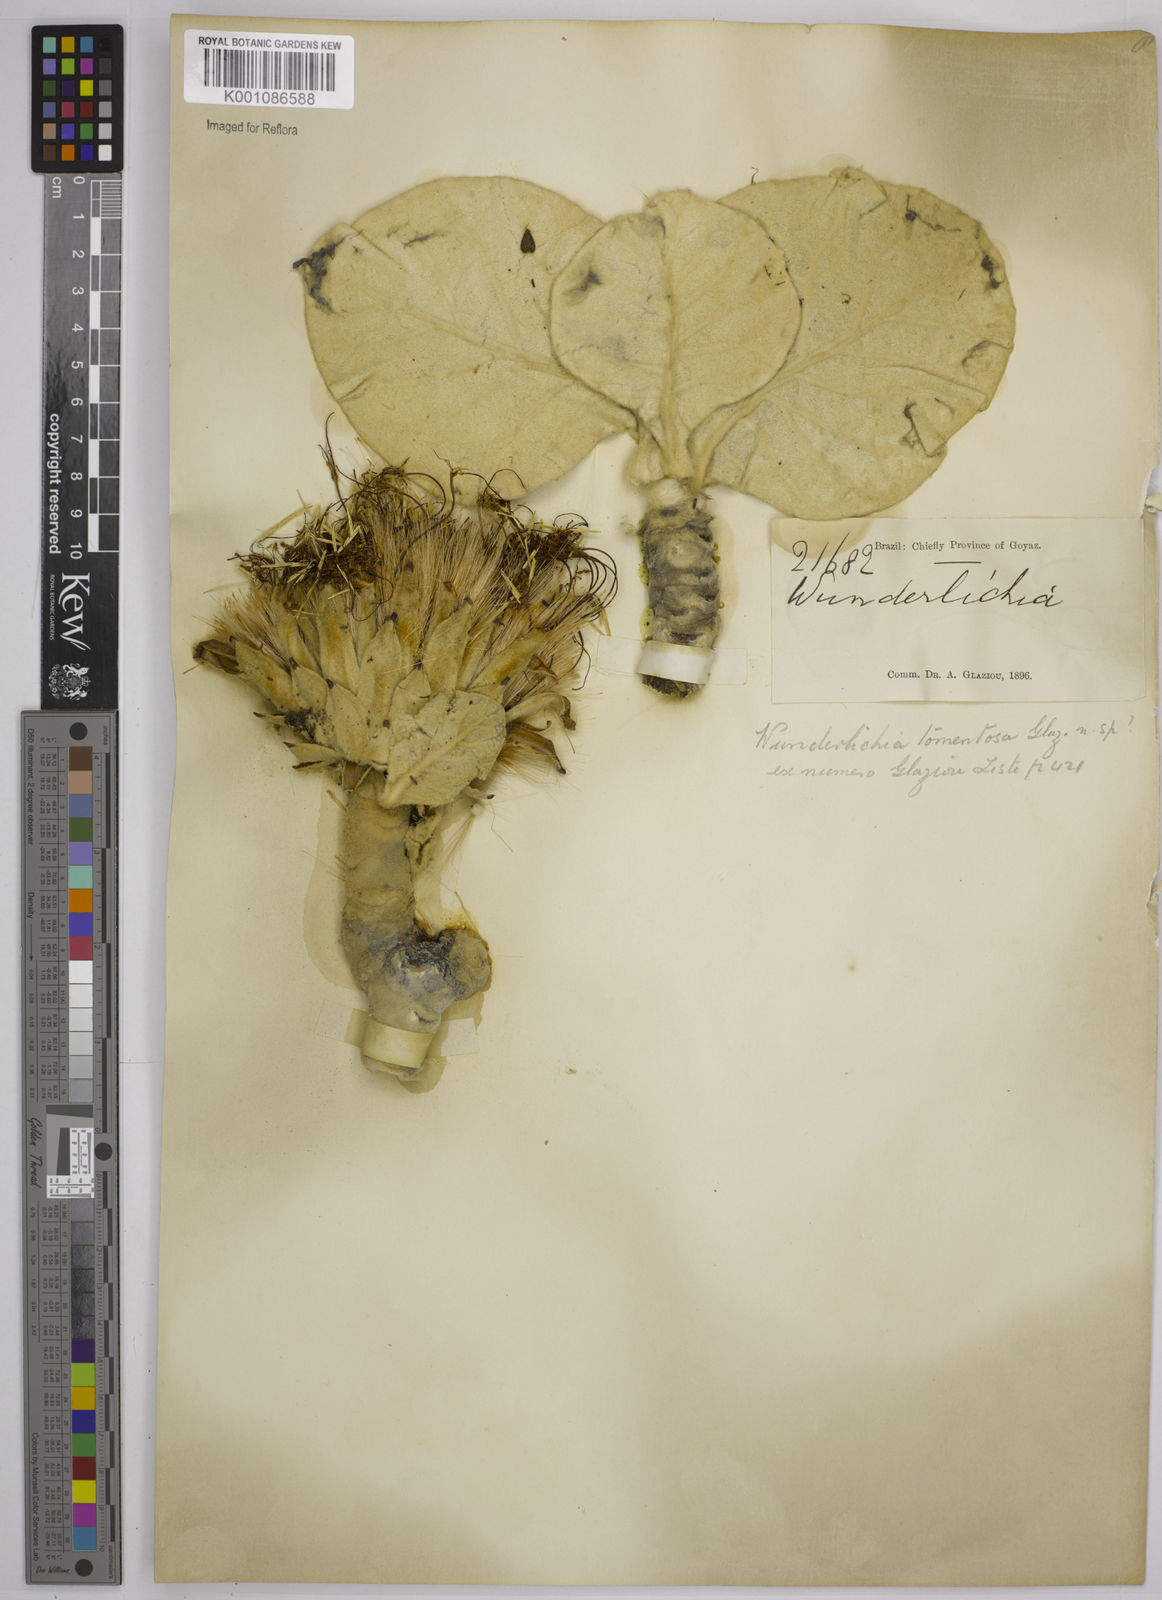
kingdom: Plantae
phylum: Tracheophyta
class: Magnoliopsida
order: Asterales
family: Asteraceae
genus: Wunderlichia
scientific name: Wunderlichia mirabilis
